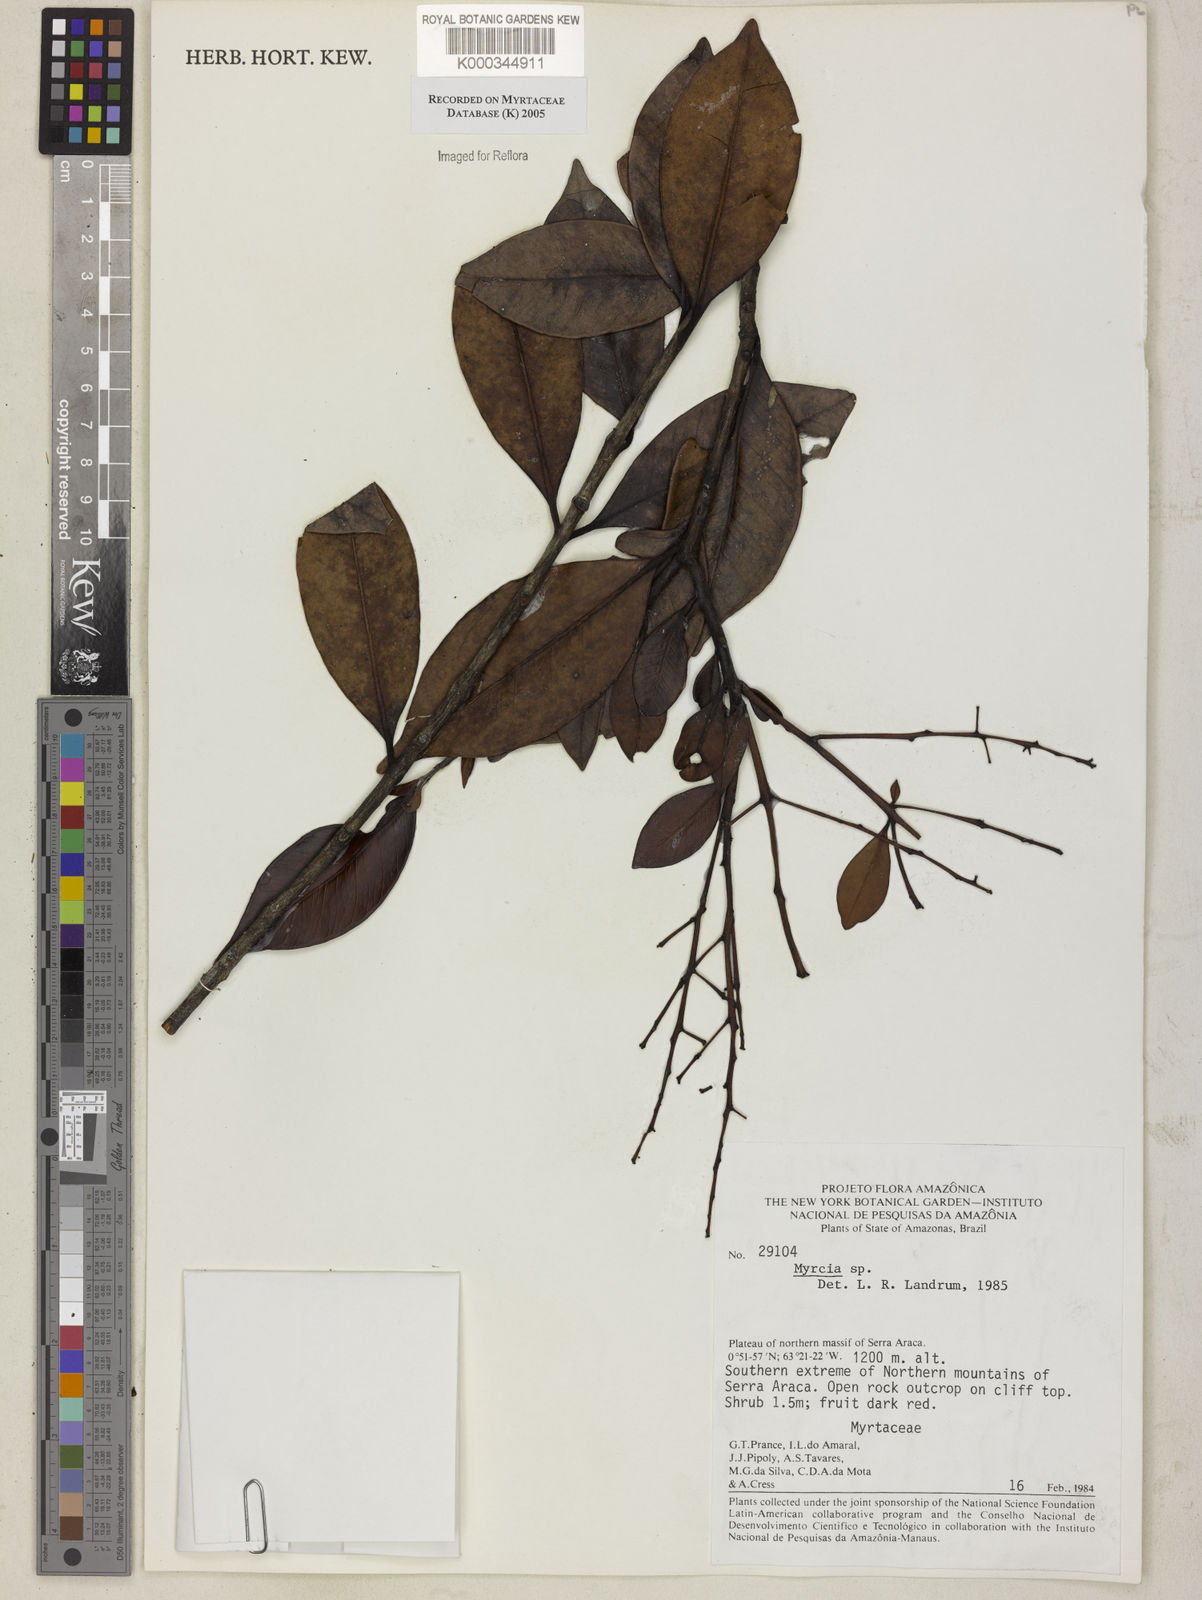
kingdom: Plantae
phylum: Tracheophyta
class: Magnoliopsida
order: Myrtales
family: Myrtaceae
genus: Myrcia
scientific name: Myrcia
